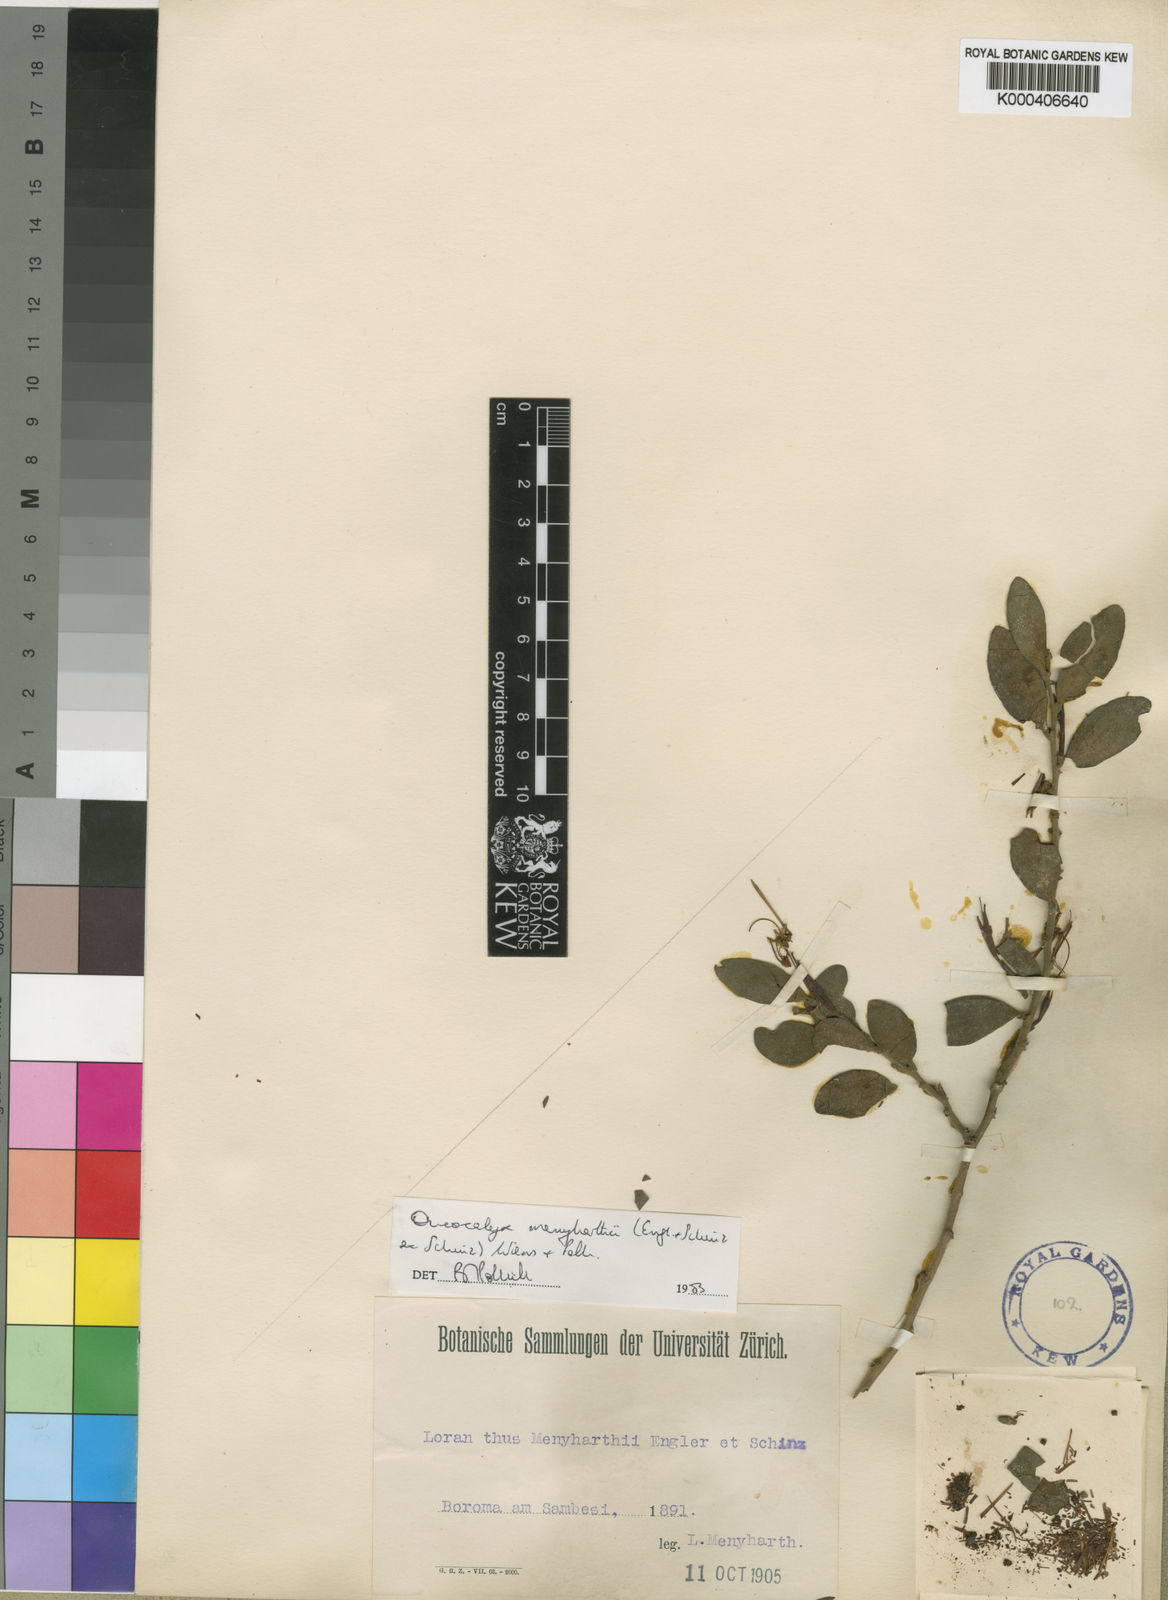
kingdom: Plantae
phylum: Tracheophyta
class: Magnoliopsida
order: Santalales
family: Loranthaceae
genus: Actinanthella
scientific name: Actinanthella menyharthii
